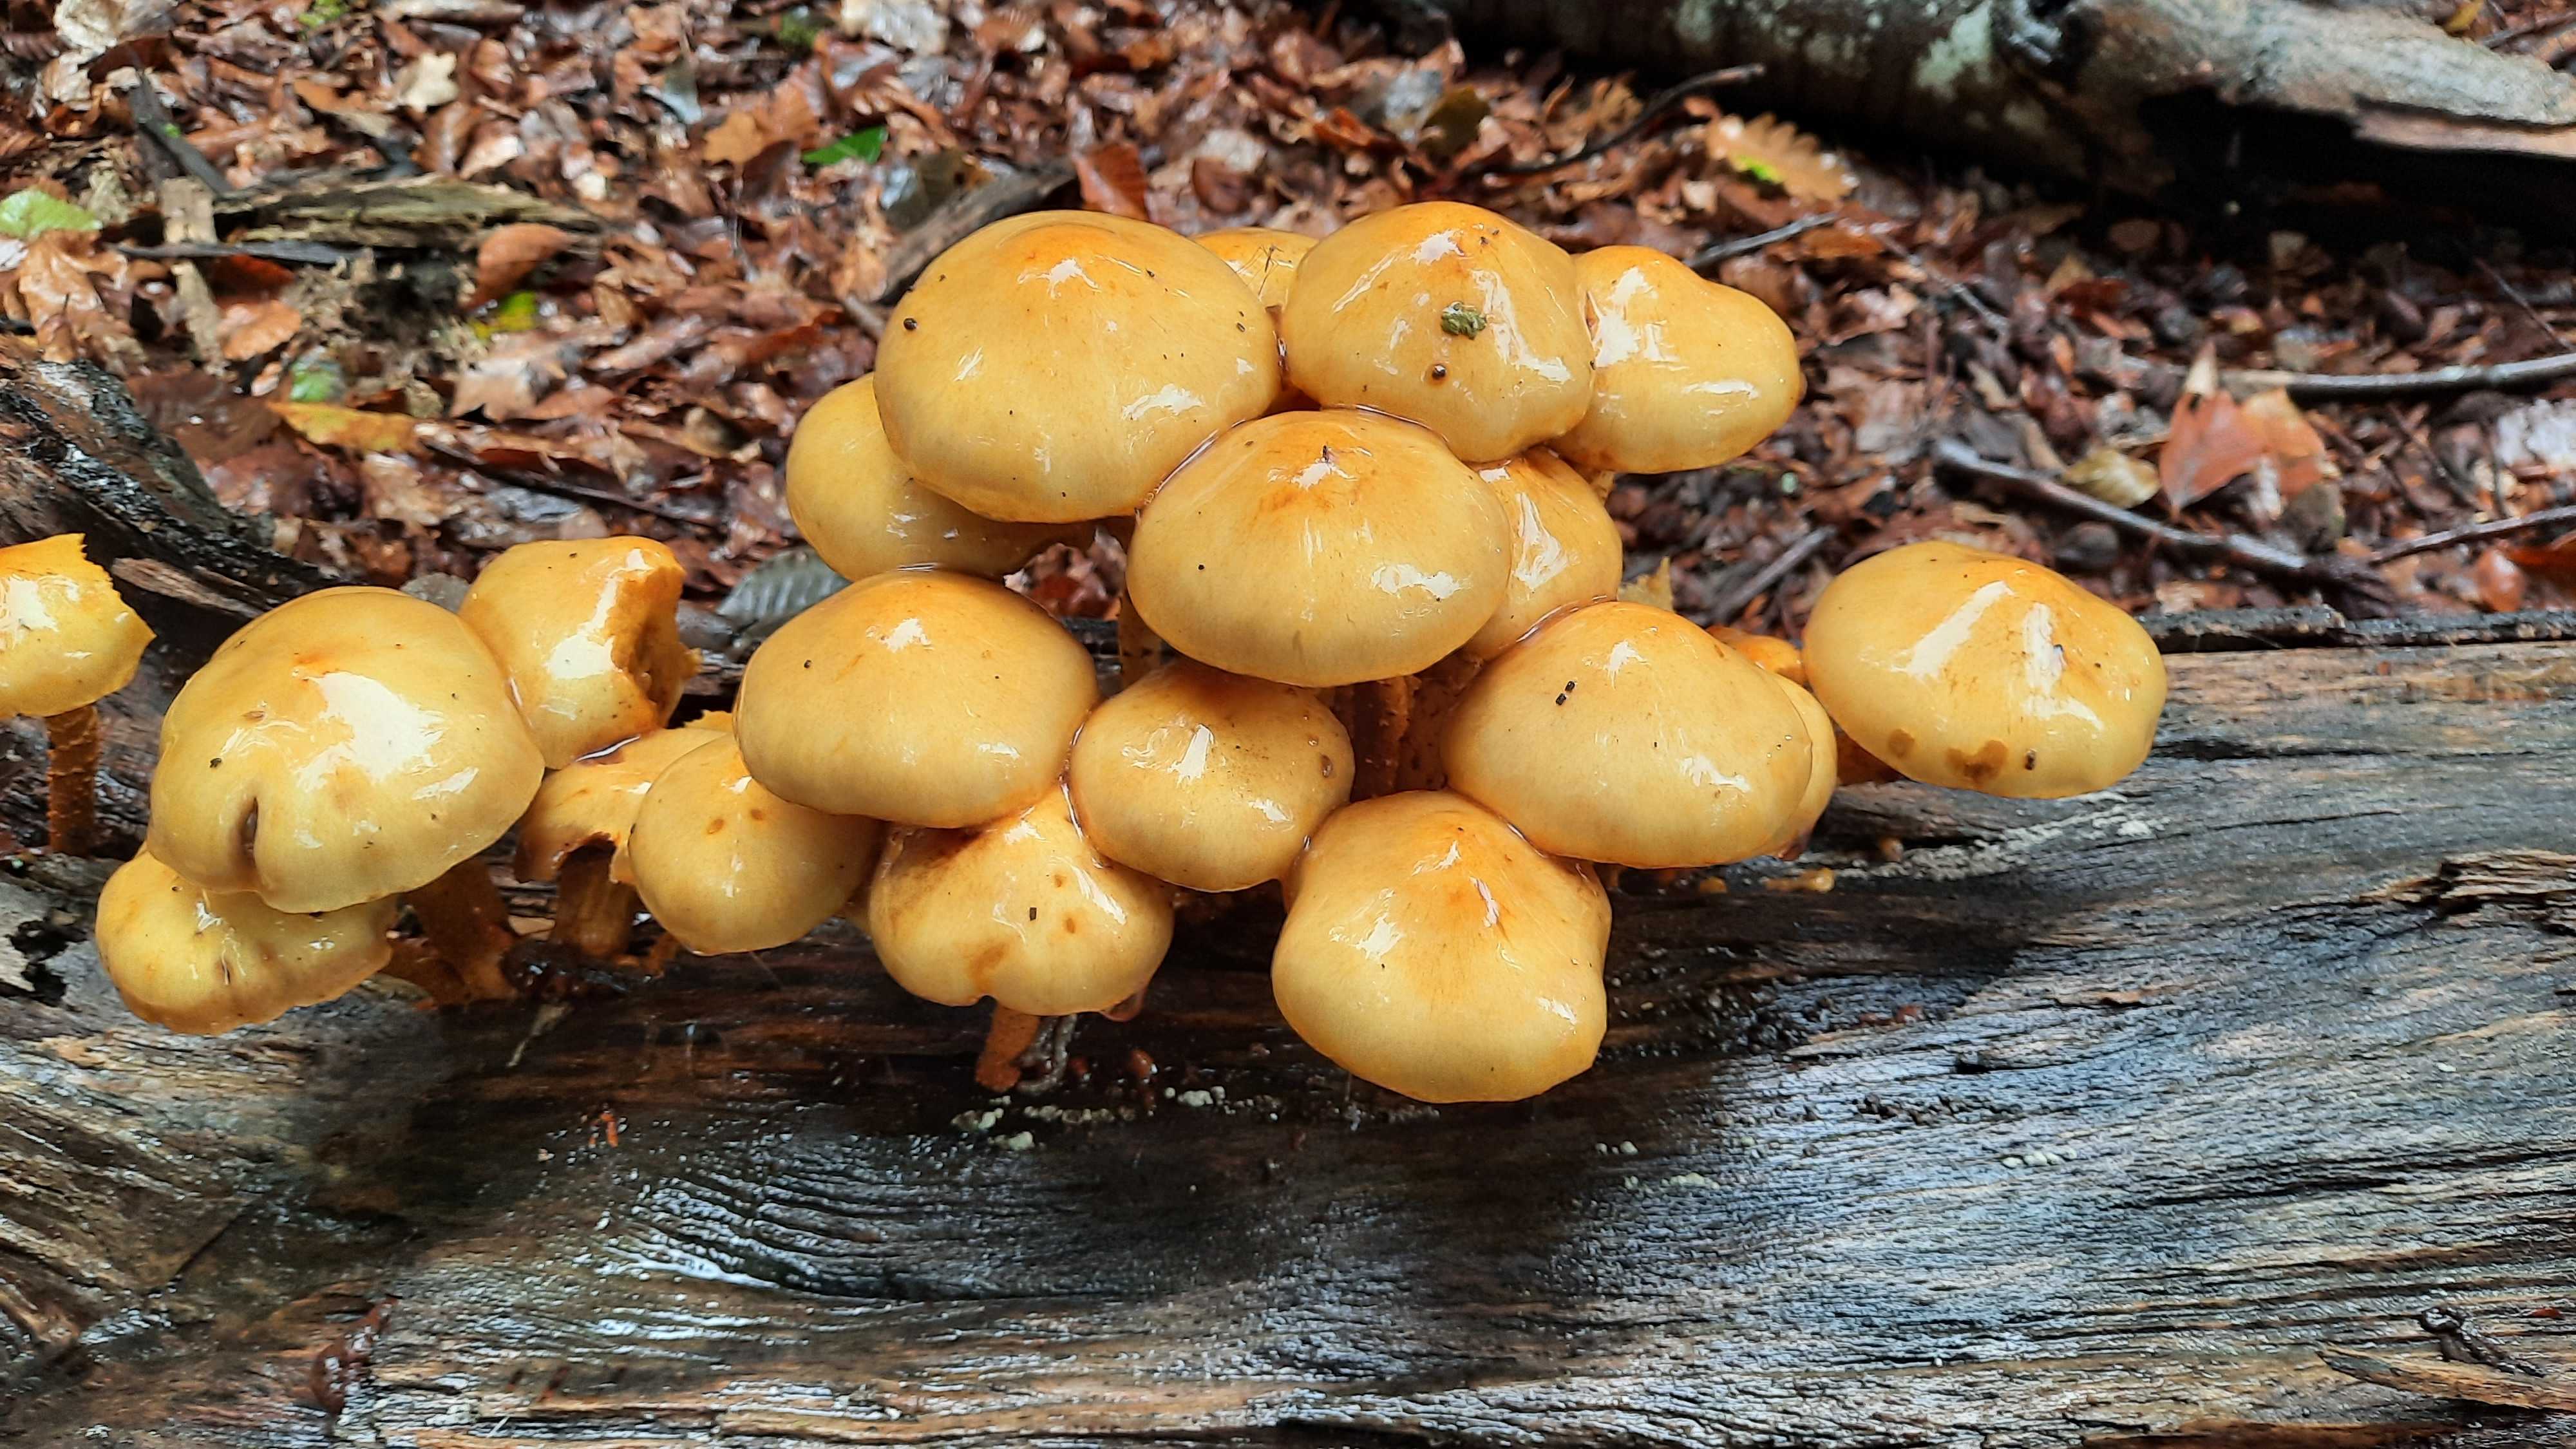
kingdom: Fungi
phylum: Basidiomycota
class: Agaricomycetes
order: Agaricales
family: Strophariaceae
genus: Pholiota
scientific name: Pholiota adiposa
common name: højtsiddende skælhat
